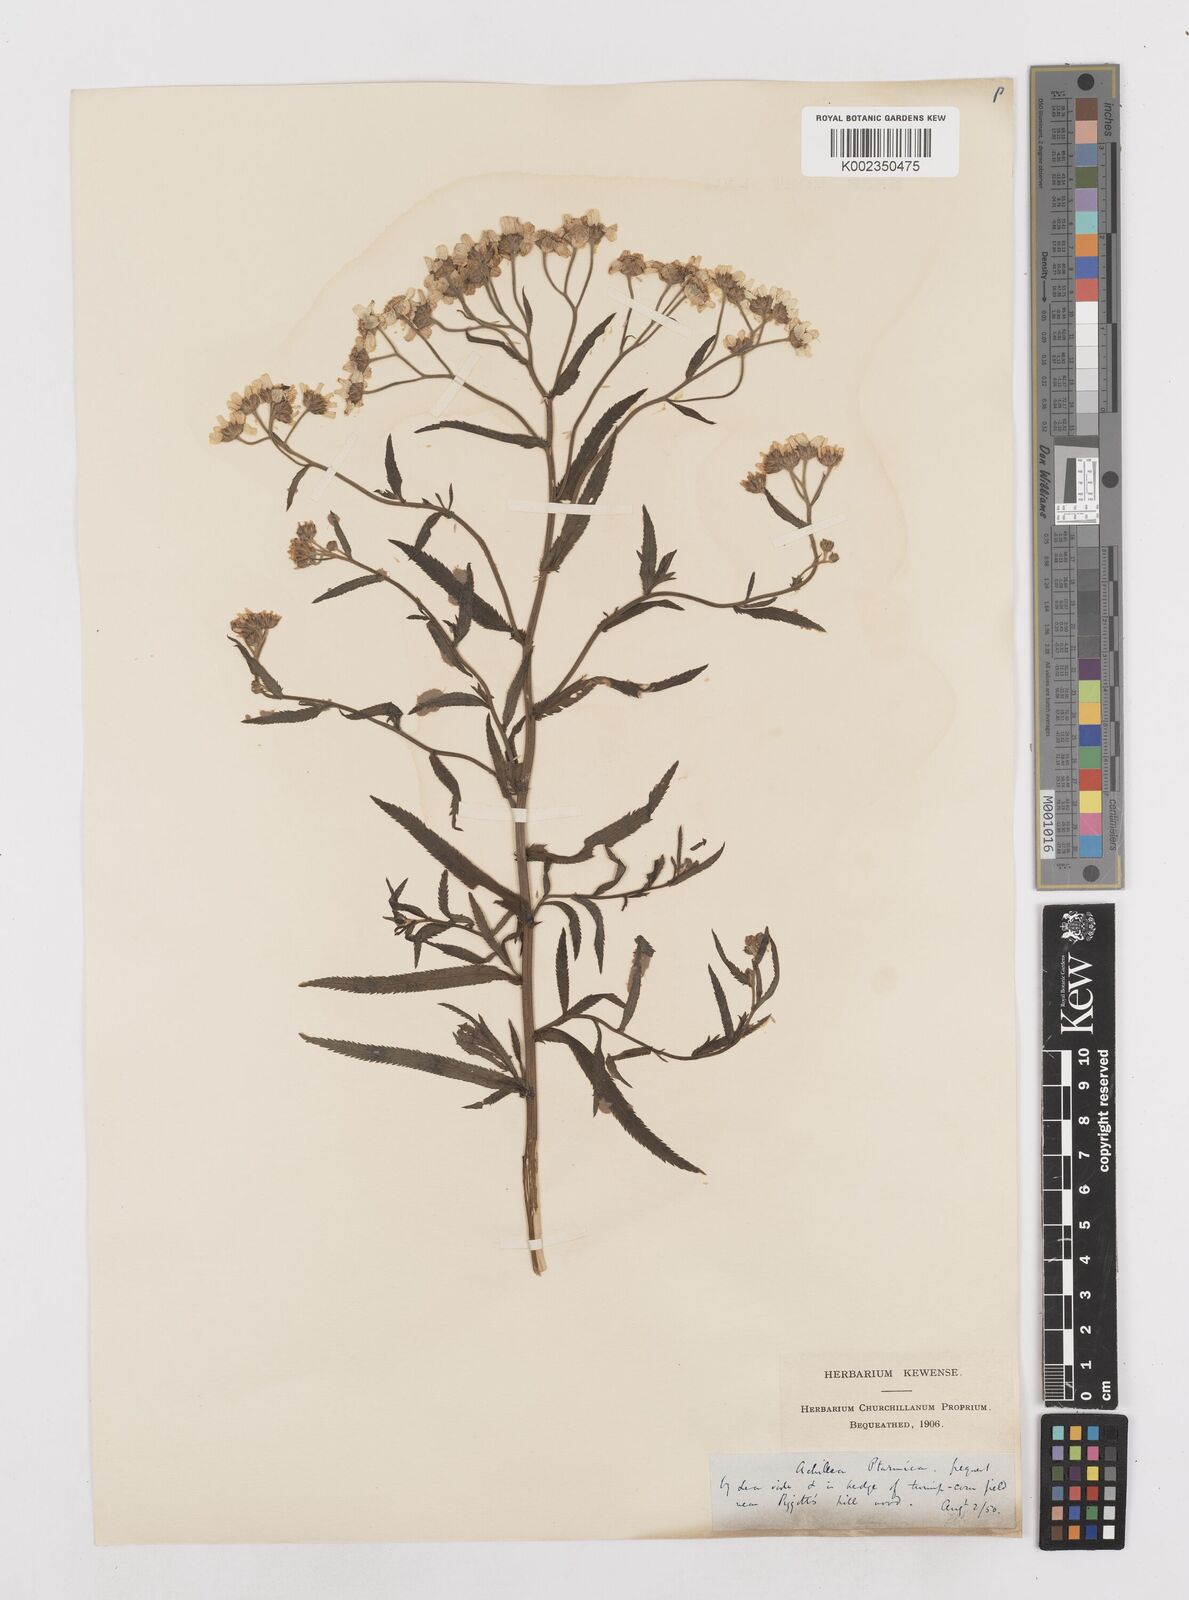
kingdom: Plantae
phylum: Tracheophyta
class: Magnoliopsida
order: Asterales
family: Asteraceae
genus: Achillea
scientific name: Achillea ptarmica
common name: Sneezeweed
